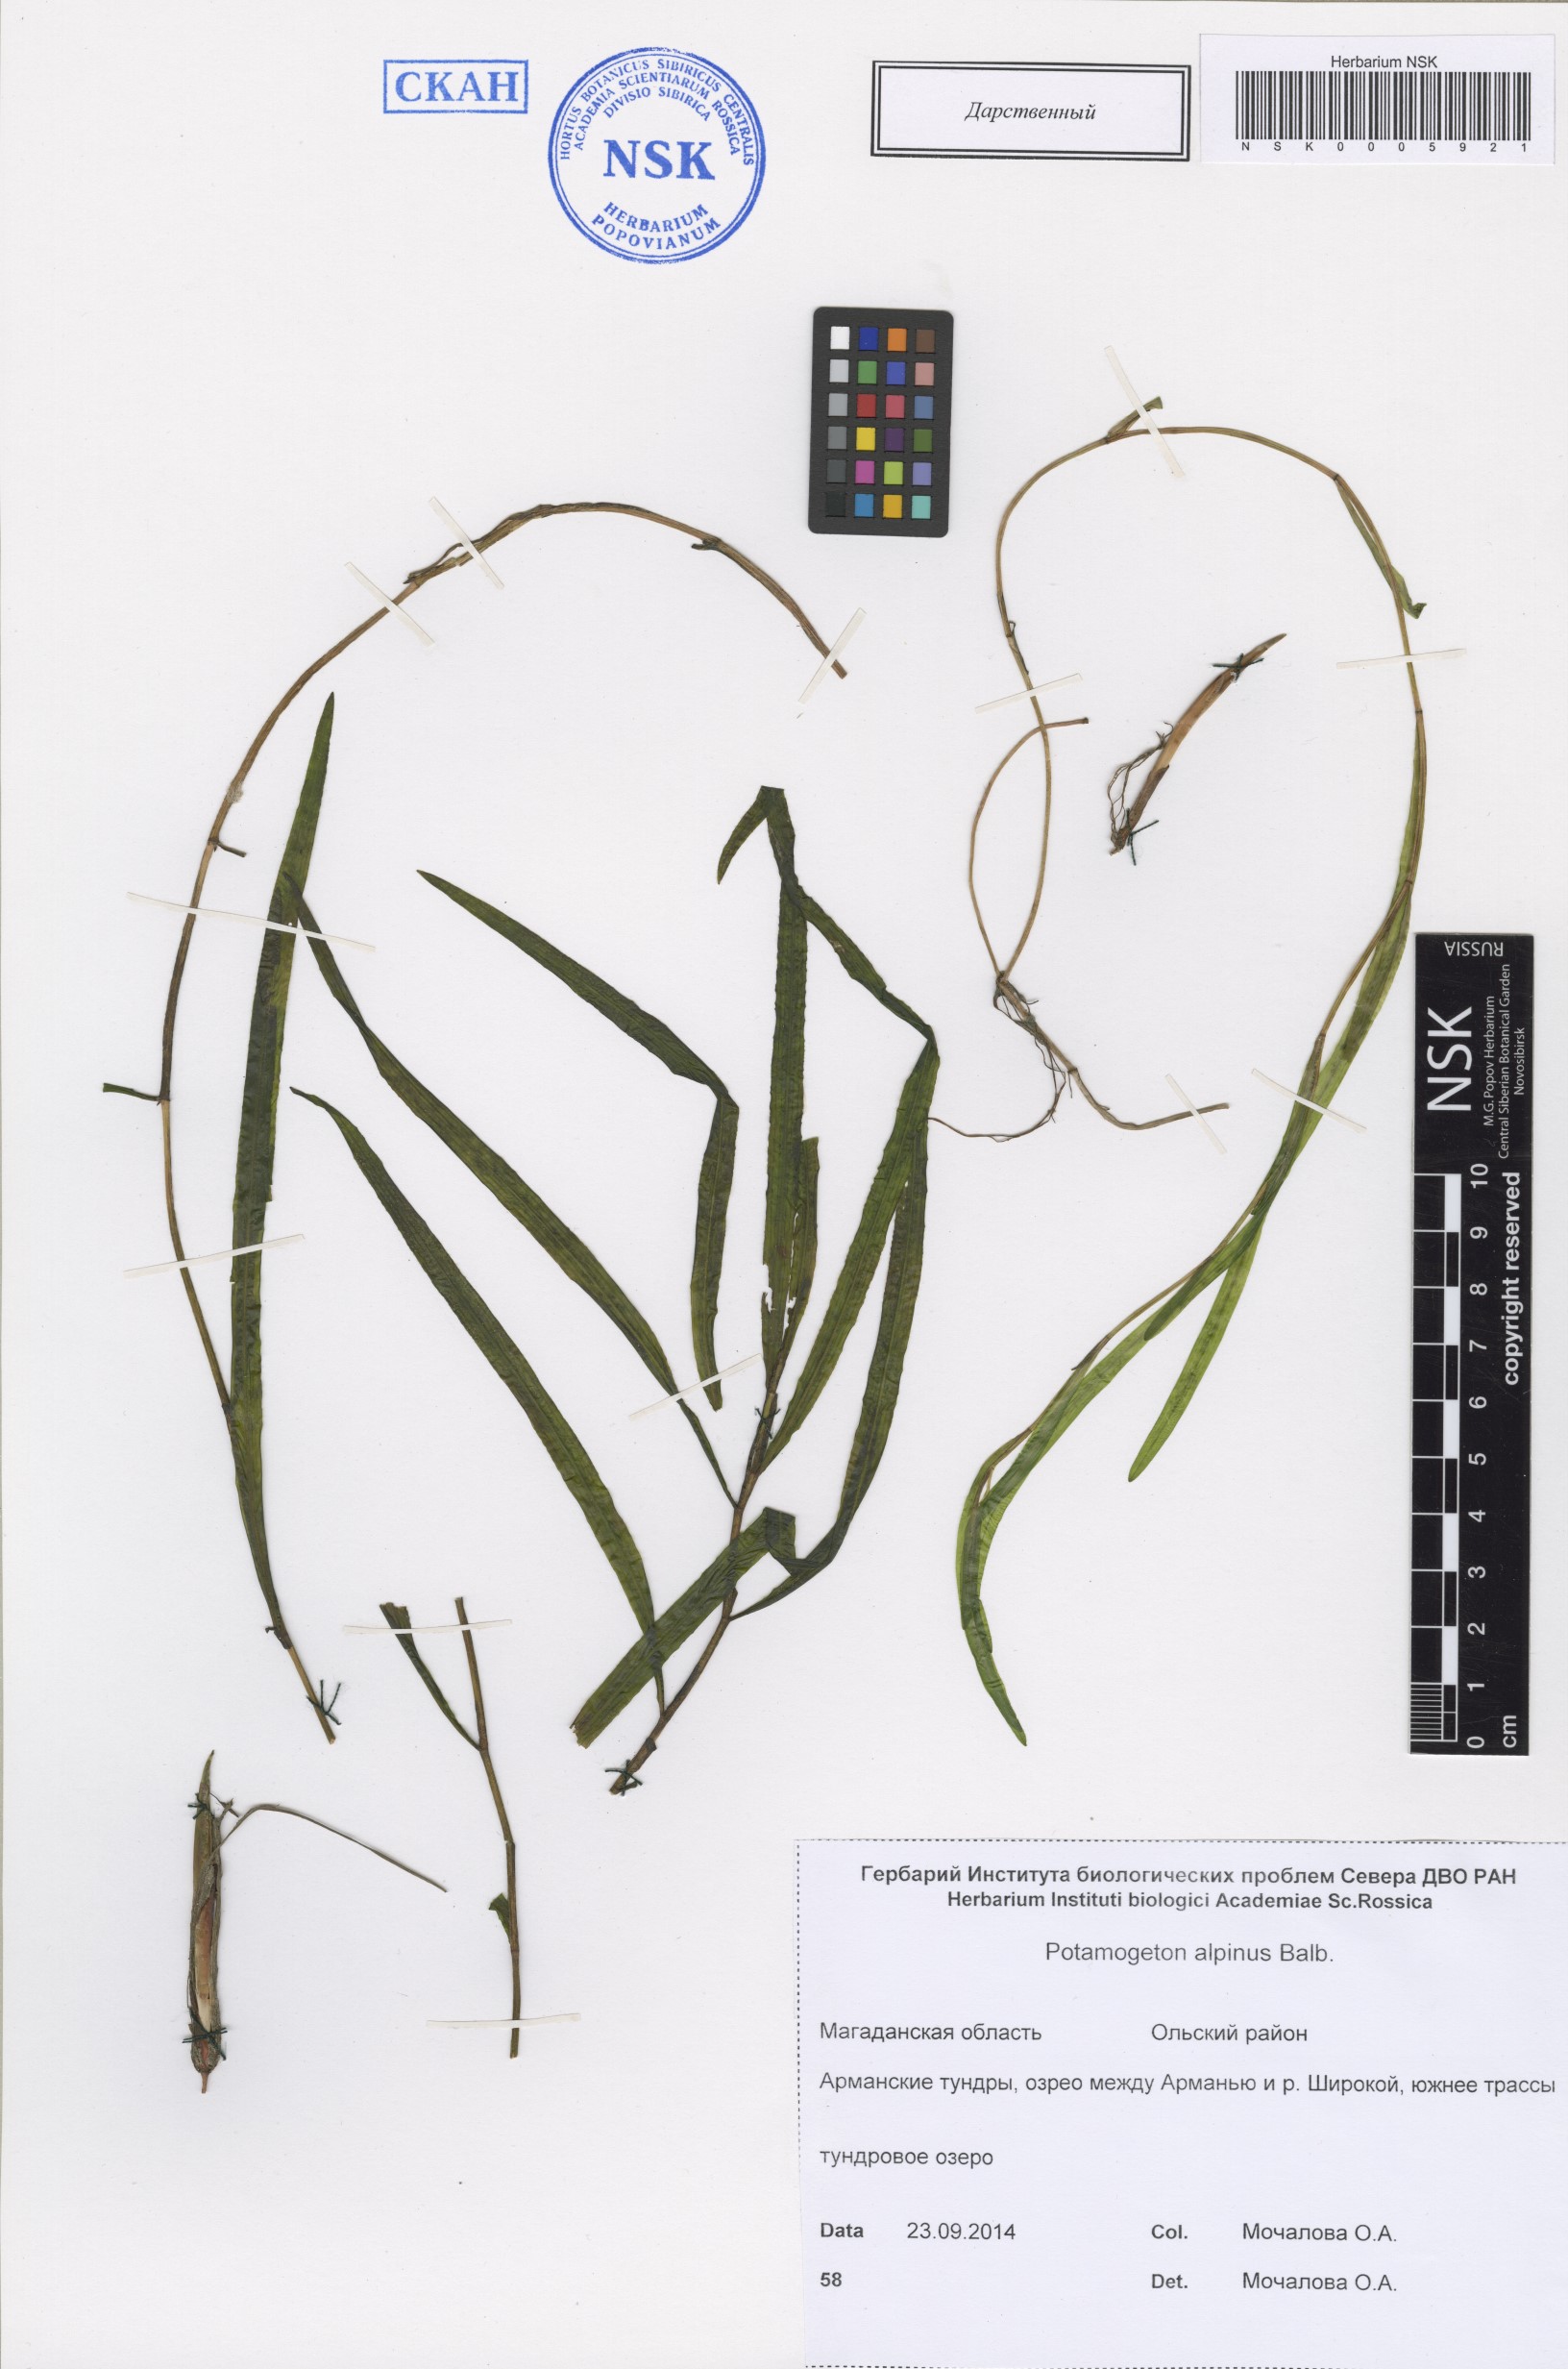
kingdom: Plantae
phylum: Tracheophyta
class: Liliopsida
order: Alismatales
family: Potamogetonaceae
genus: Potamogeton
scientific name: Potamogeton alpinus
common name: Red pondweed
